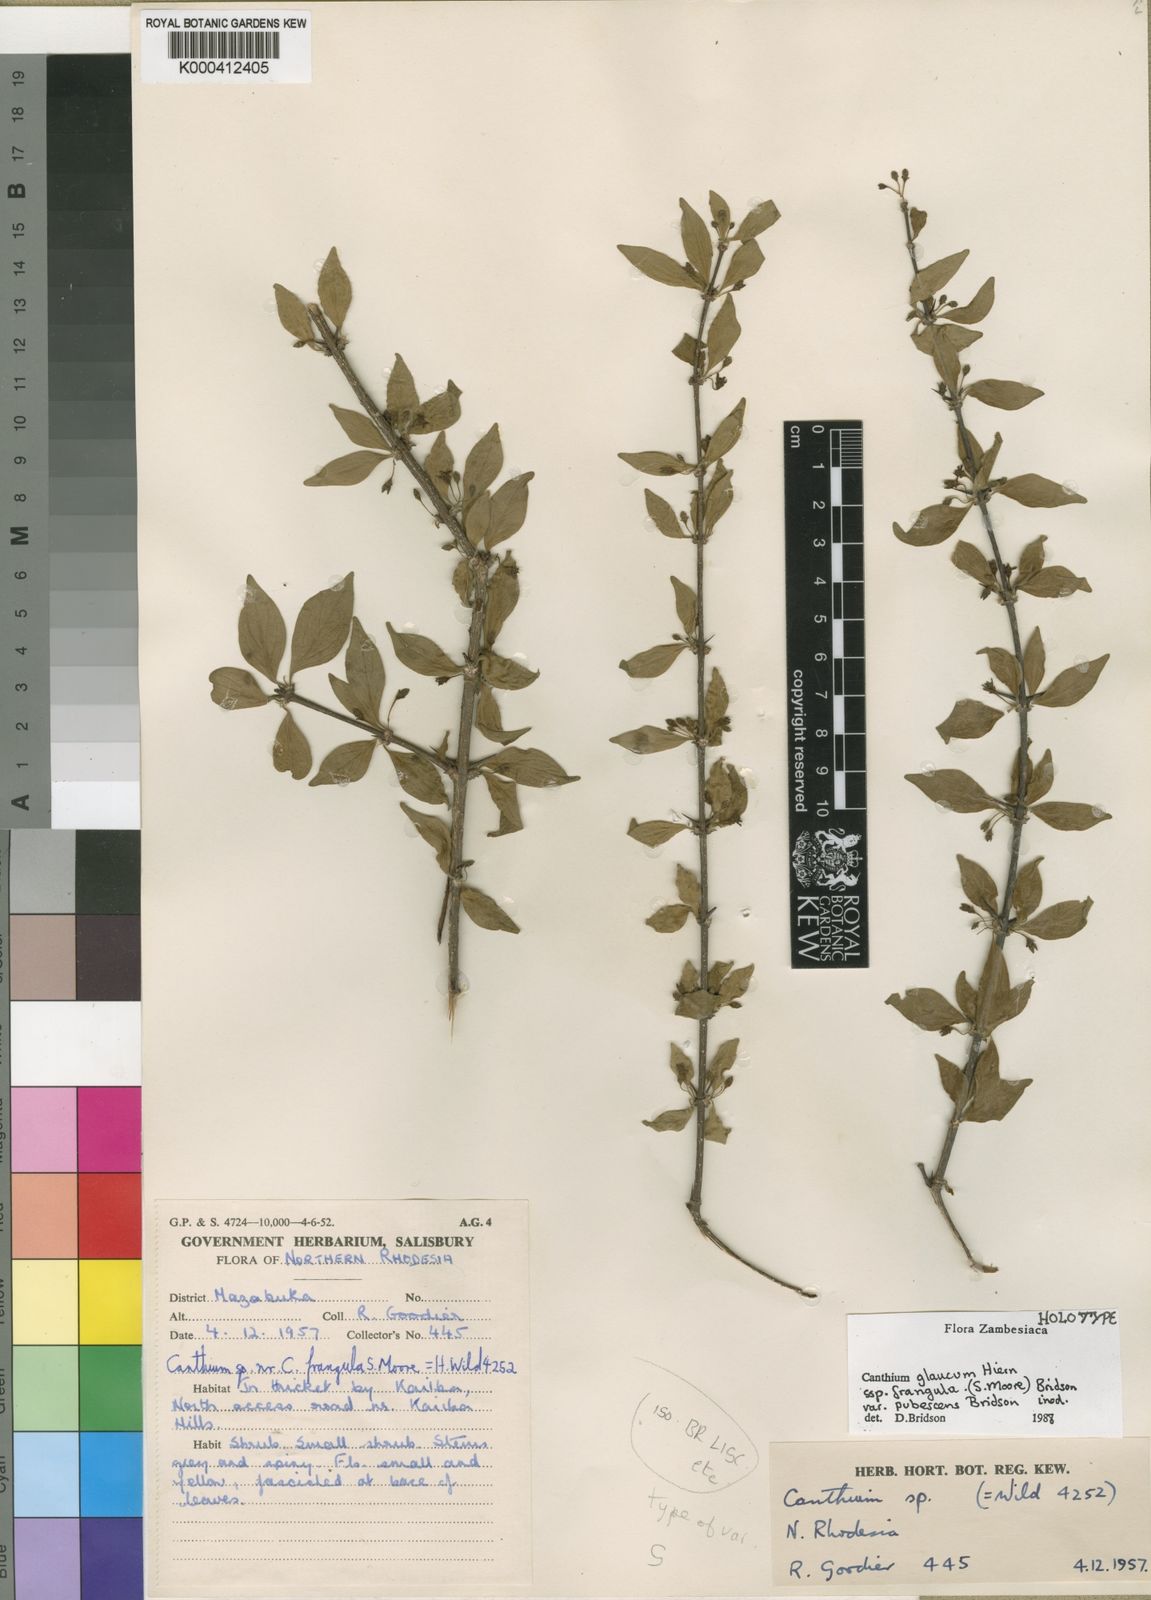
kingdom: Plantae
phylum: Tracheophyta
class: Magnoliopsida
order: Gentianales
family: Rubiaceae
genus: Canthium
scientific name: Canthium glaucum
